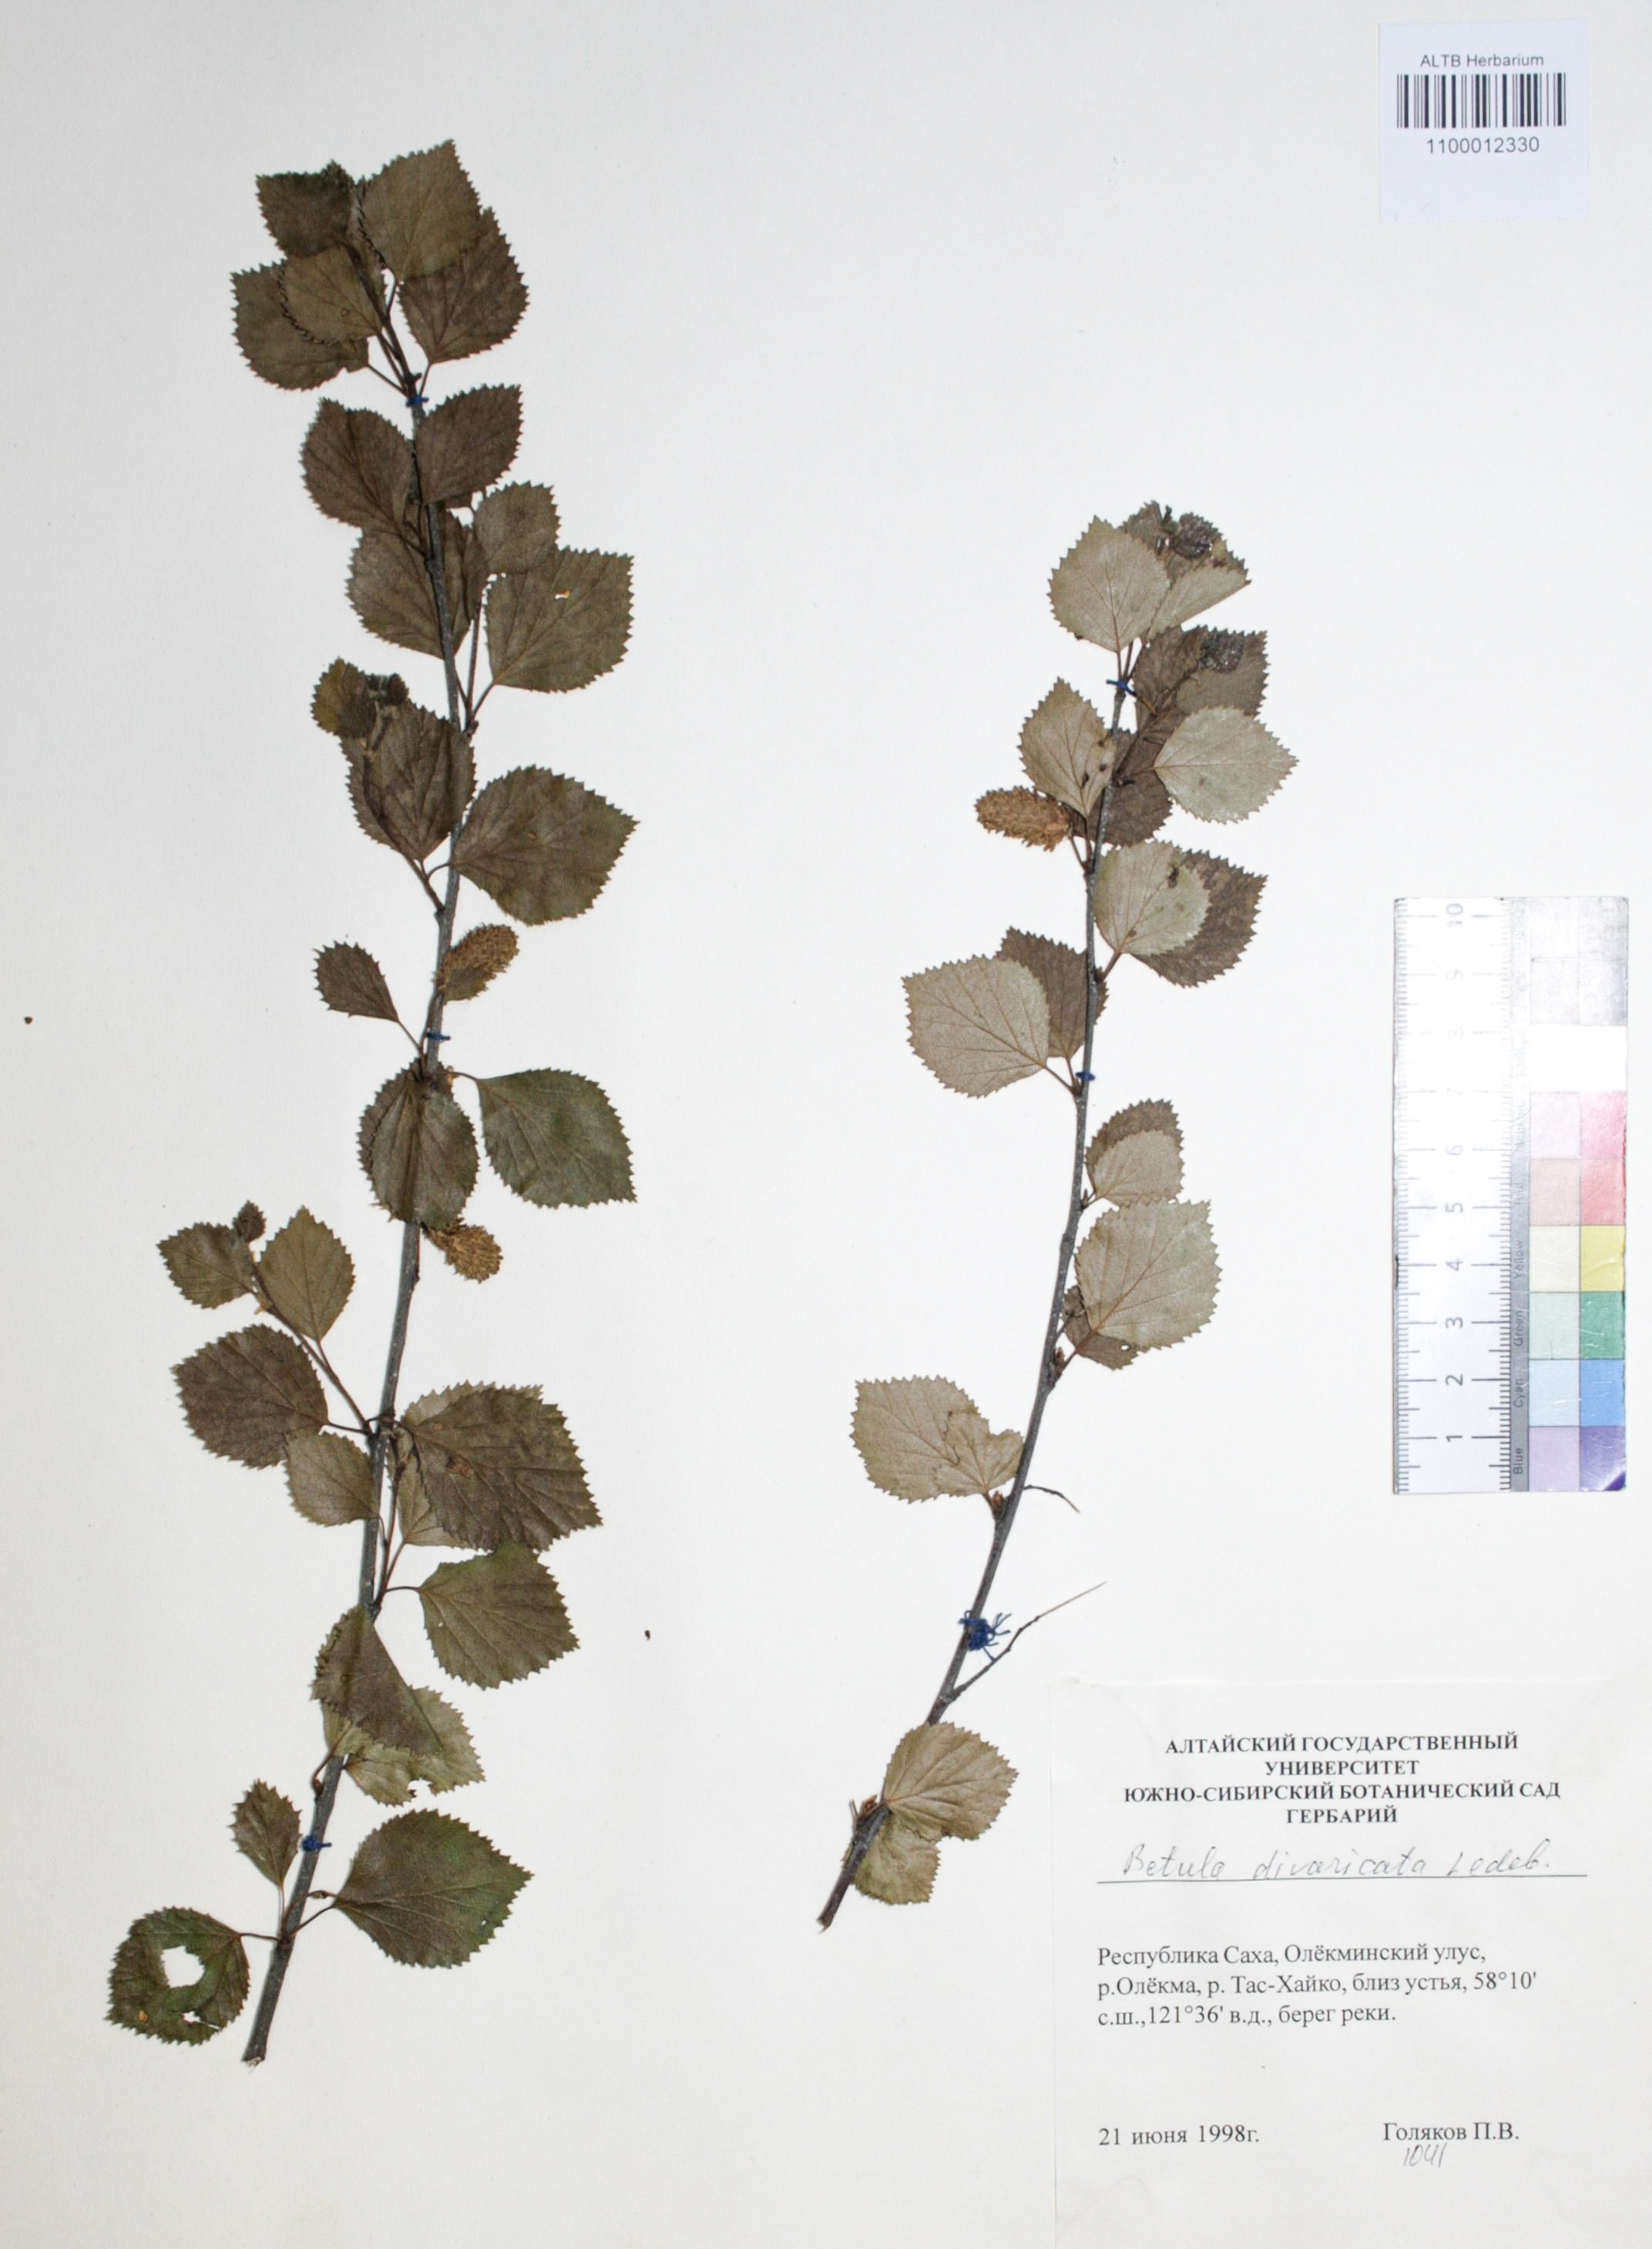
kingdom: Plantae
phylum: Tracheophyta
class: Magnoliopsida
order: Fagales
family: Betulaceae
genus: Betula
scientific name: Betula fruticosa
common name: Japanese bog birch
